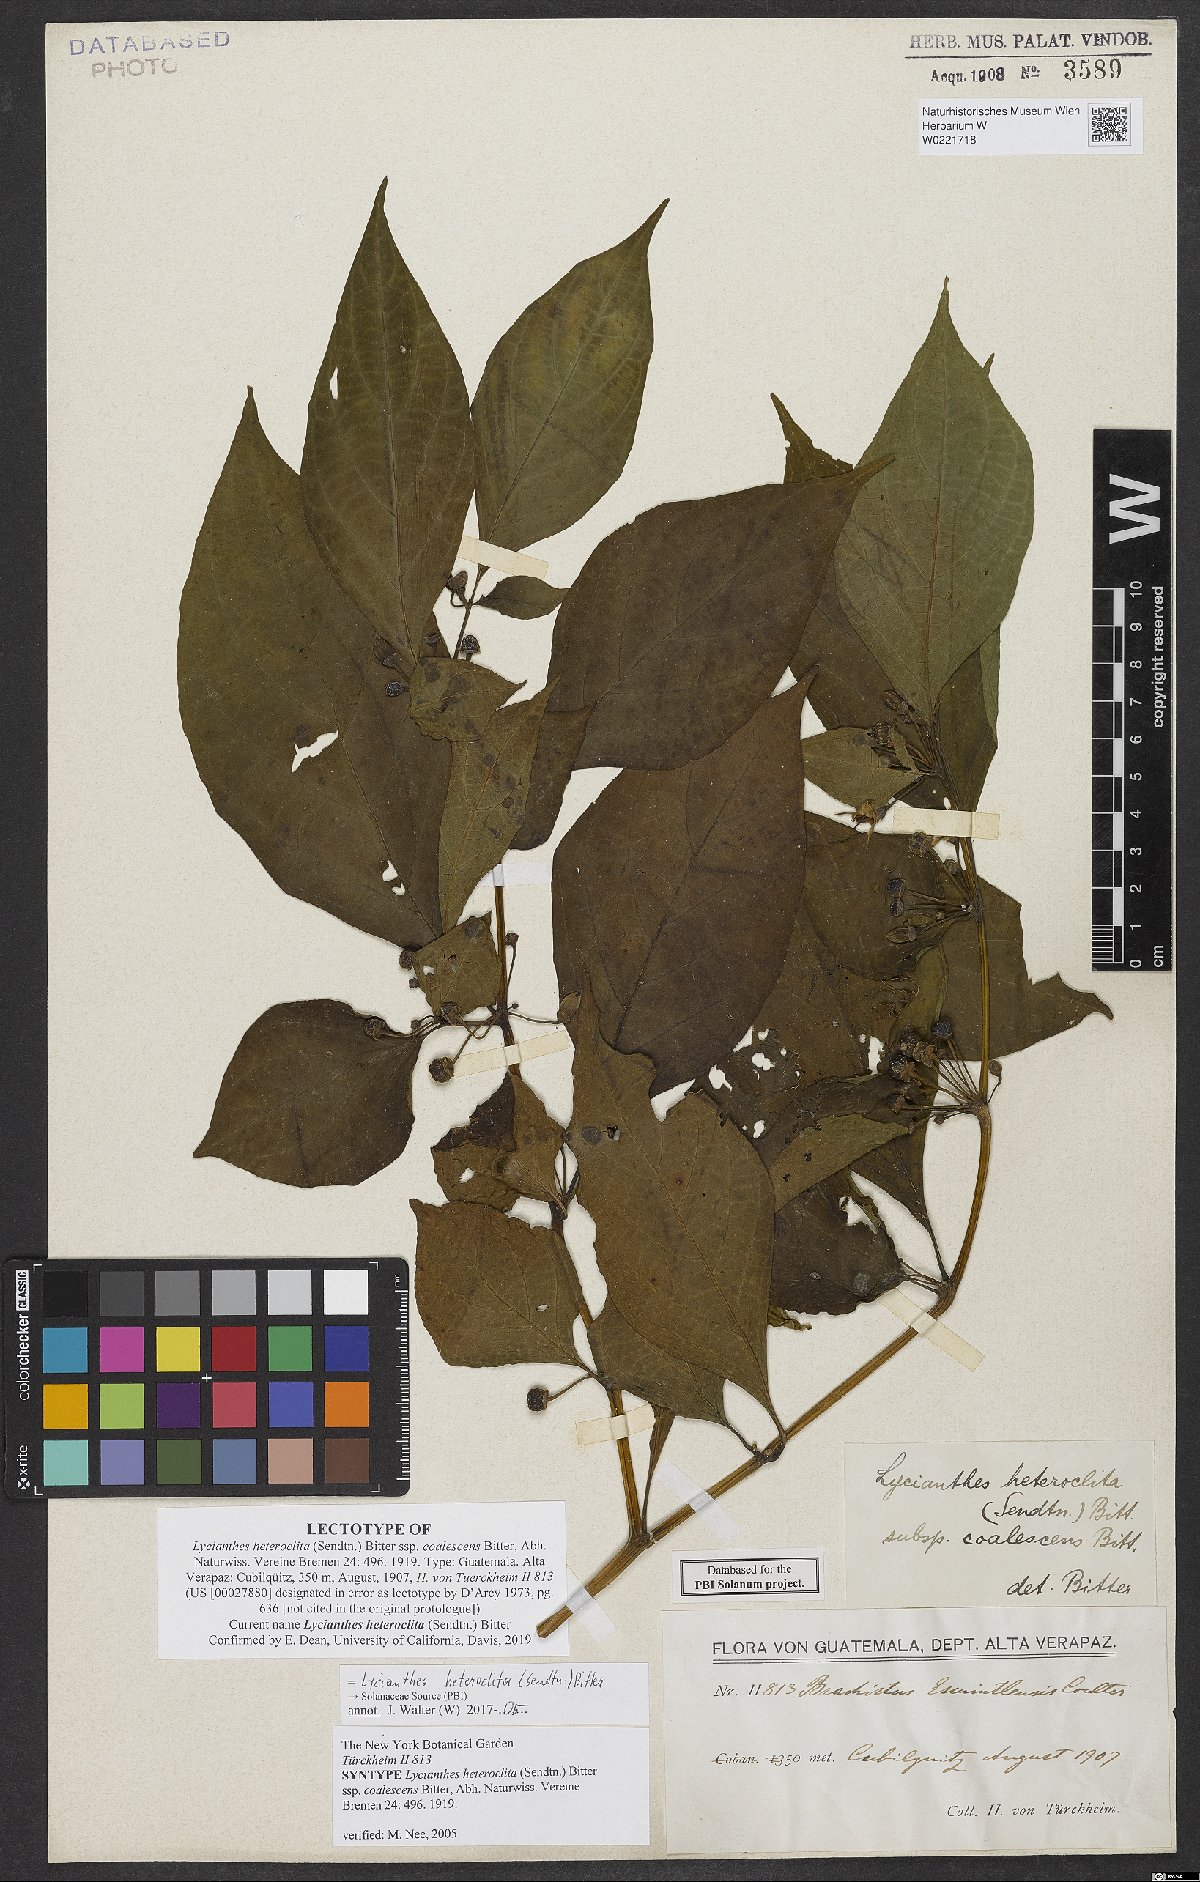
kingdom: Plantae
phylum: Tracheophyta
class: Magnoliopsida
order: Solanales
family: Solanaceae
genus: Lycianthes
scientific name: Lycianthes heteroclita
